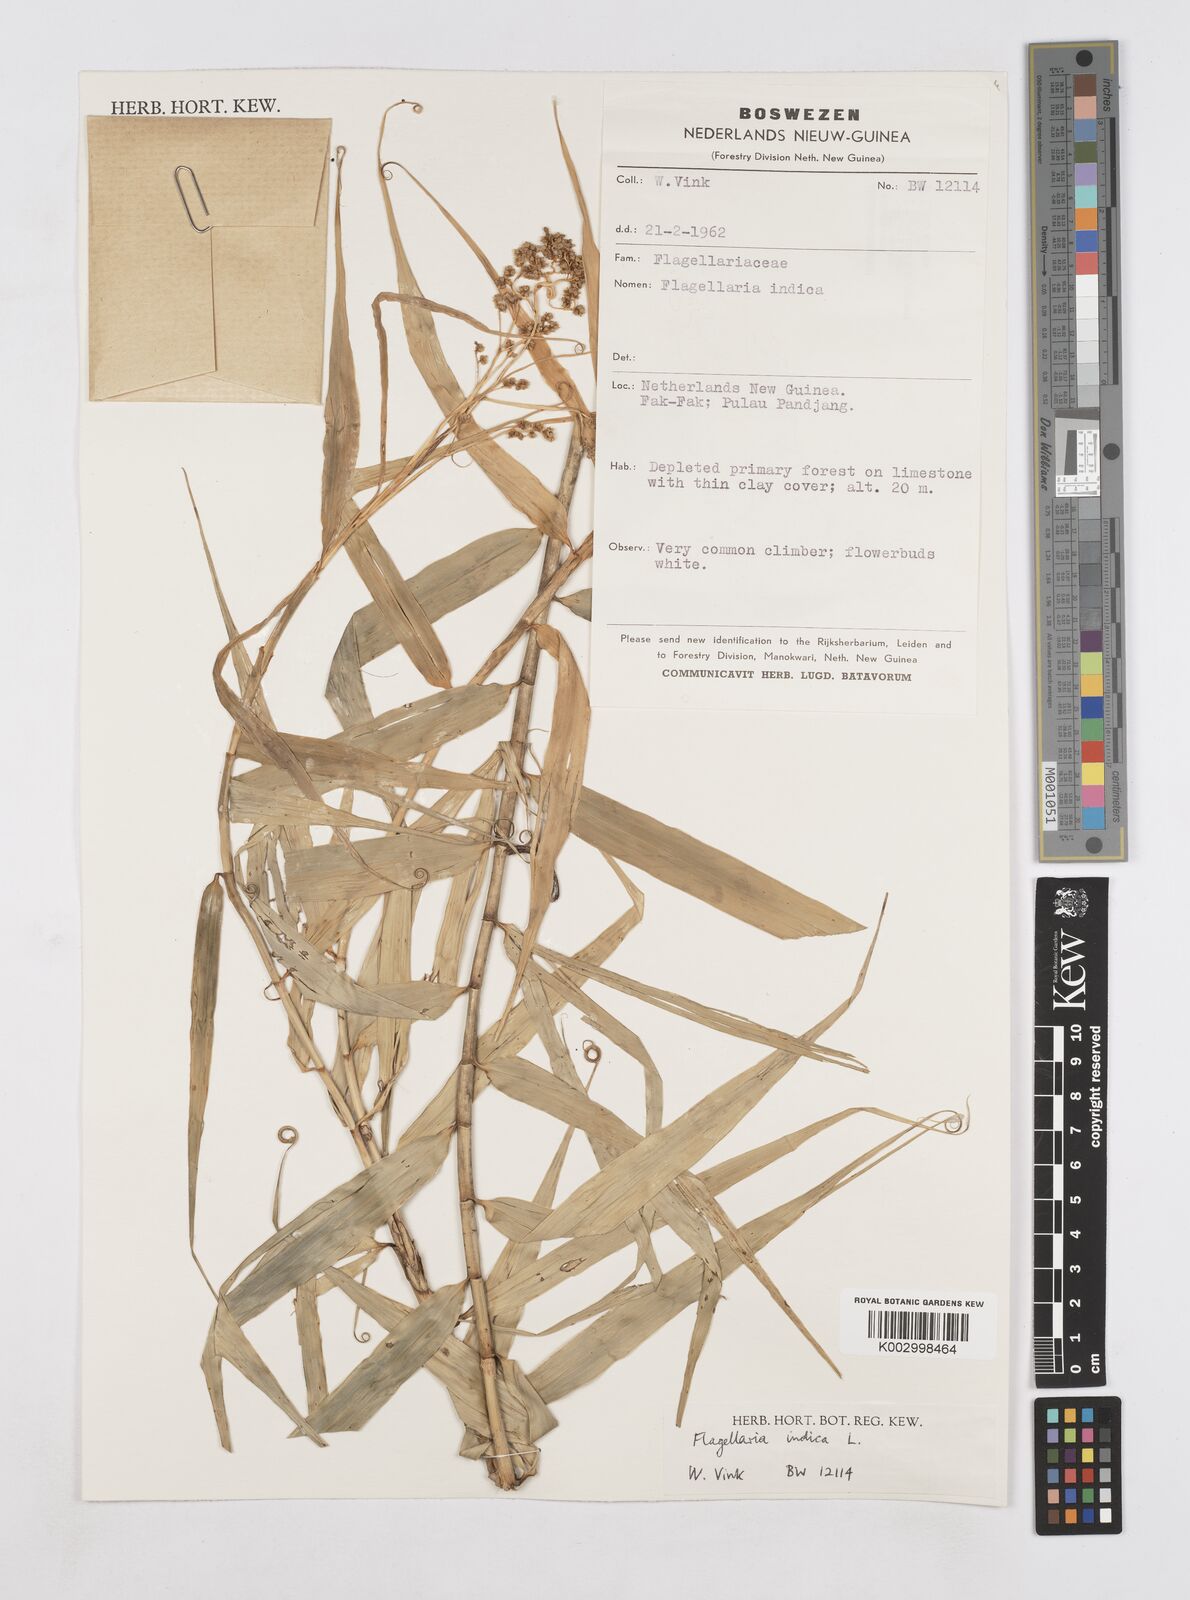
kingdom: Plantae
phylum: Tracheophyta
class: Liliopsida
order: Poales
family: Flagellariaceae
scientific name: Flagellariaceae
